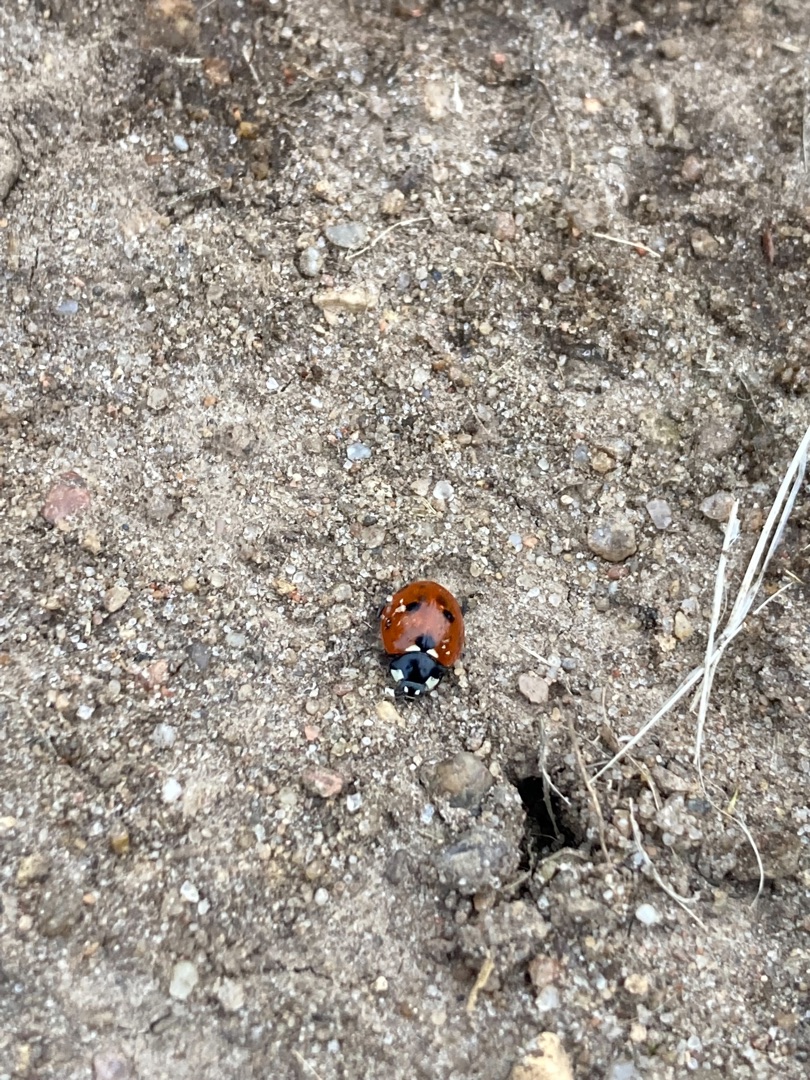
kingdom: Animalia
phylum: Arthropoda
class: Insecta
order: Coleoptera
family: Coccinellidae
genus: Coccinella
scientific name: Coccinella septempunctata
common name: Syvplettet mariehøne
